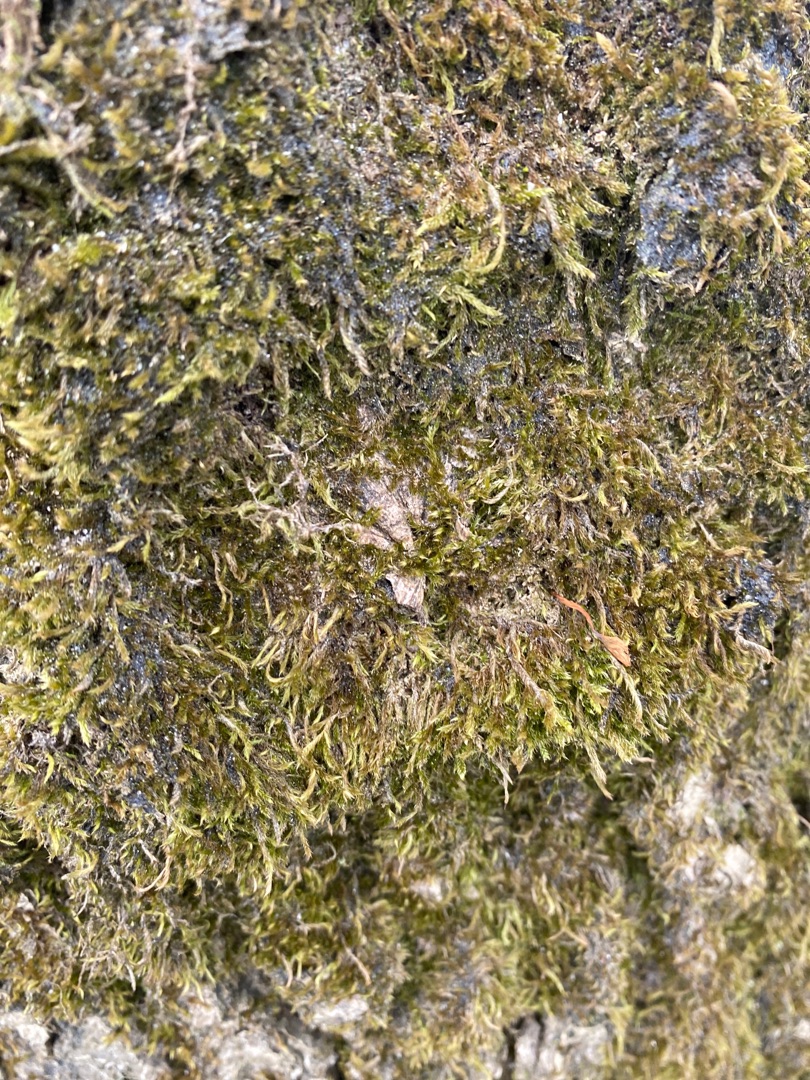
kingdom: Plantae
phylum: Bryophyta
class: Bryopsida
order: Hypnales
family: Hypnaceae
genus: Hypnum
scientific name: Hypnum
